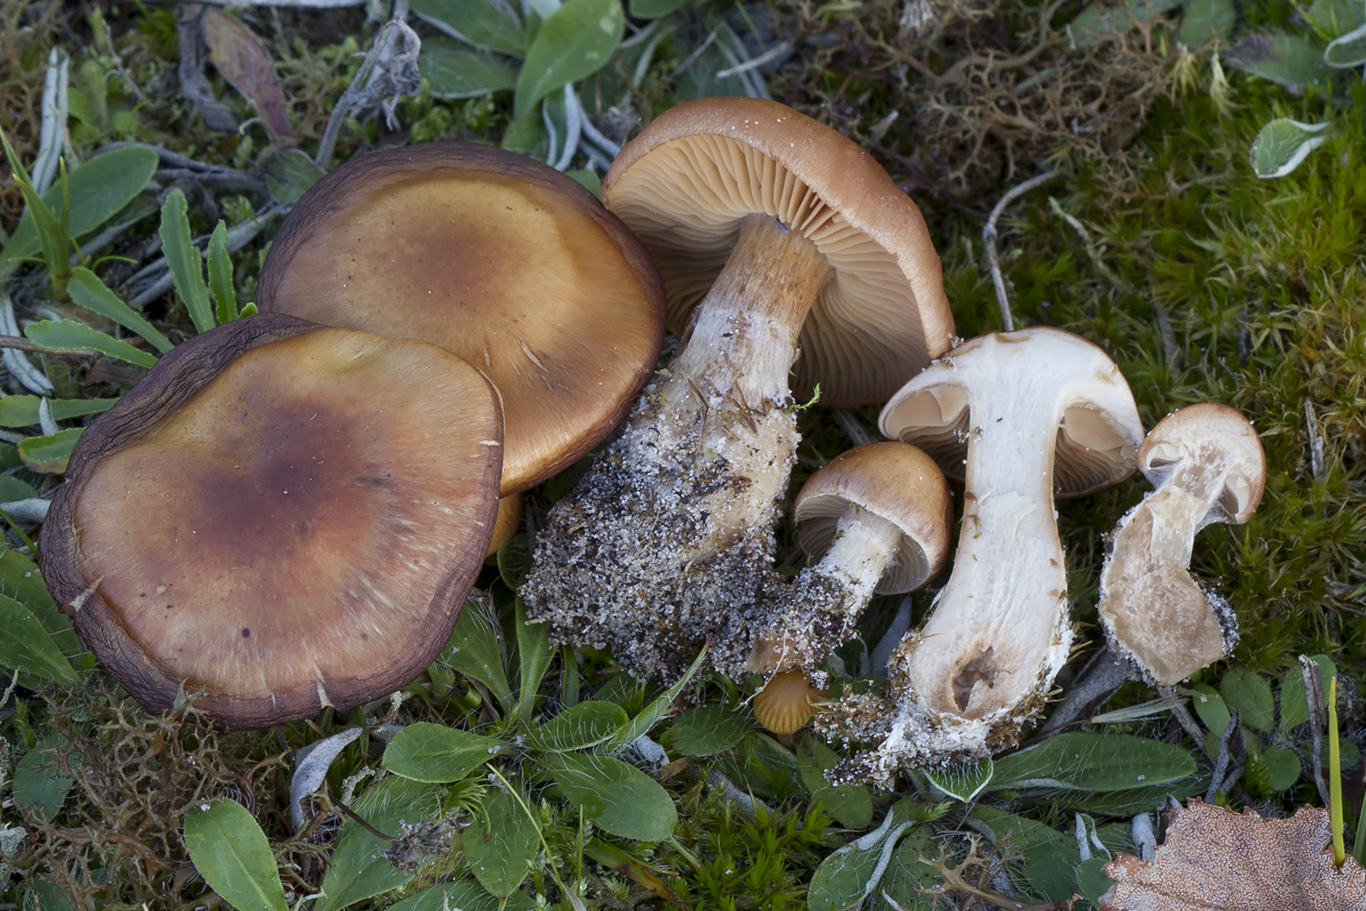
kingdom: Fungi
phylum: Basidiomycota
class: Agaricomycetes
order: Agaricales
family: Cortinariaceae
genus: Cortinarius
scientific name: Cortinarius
